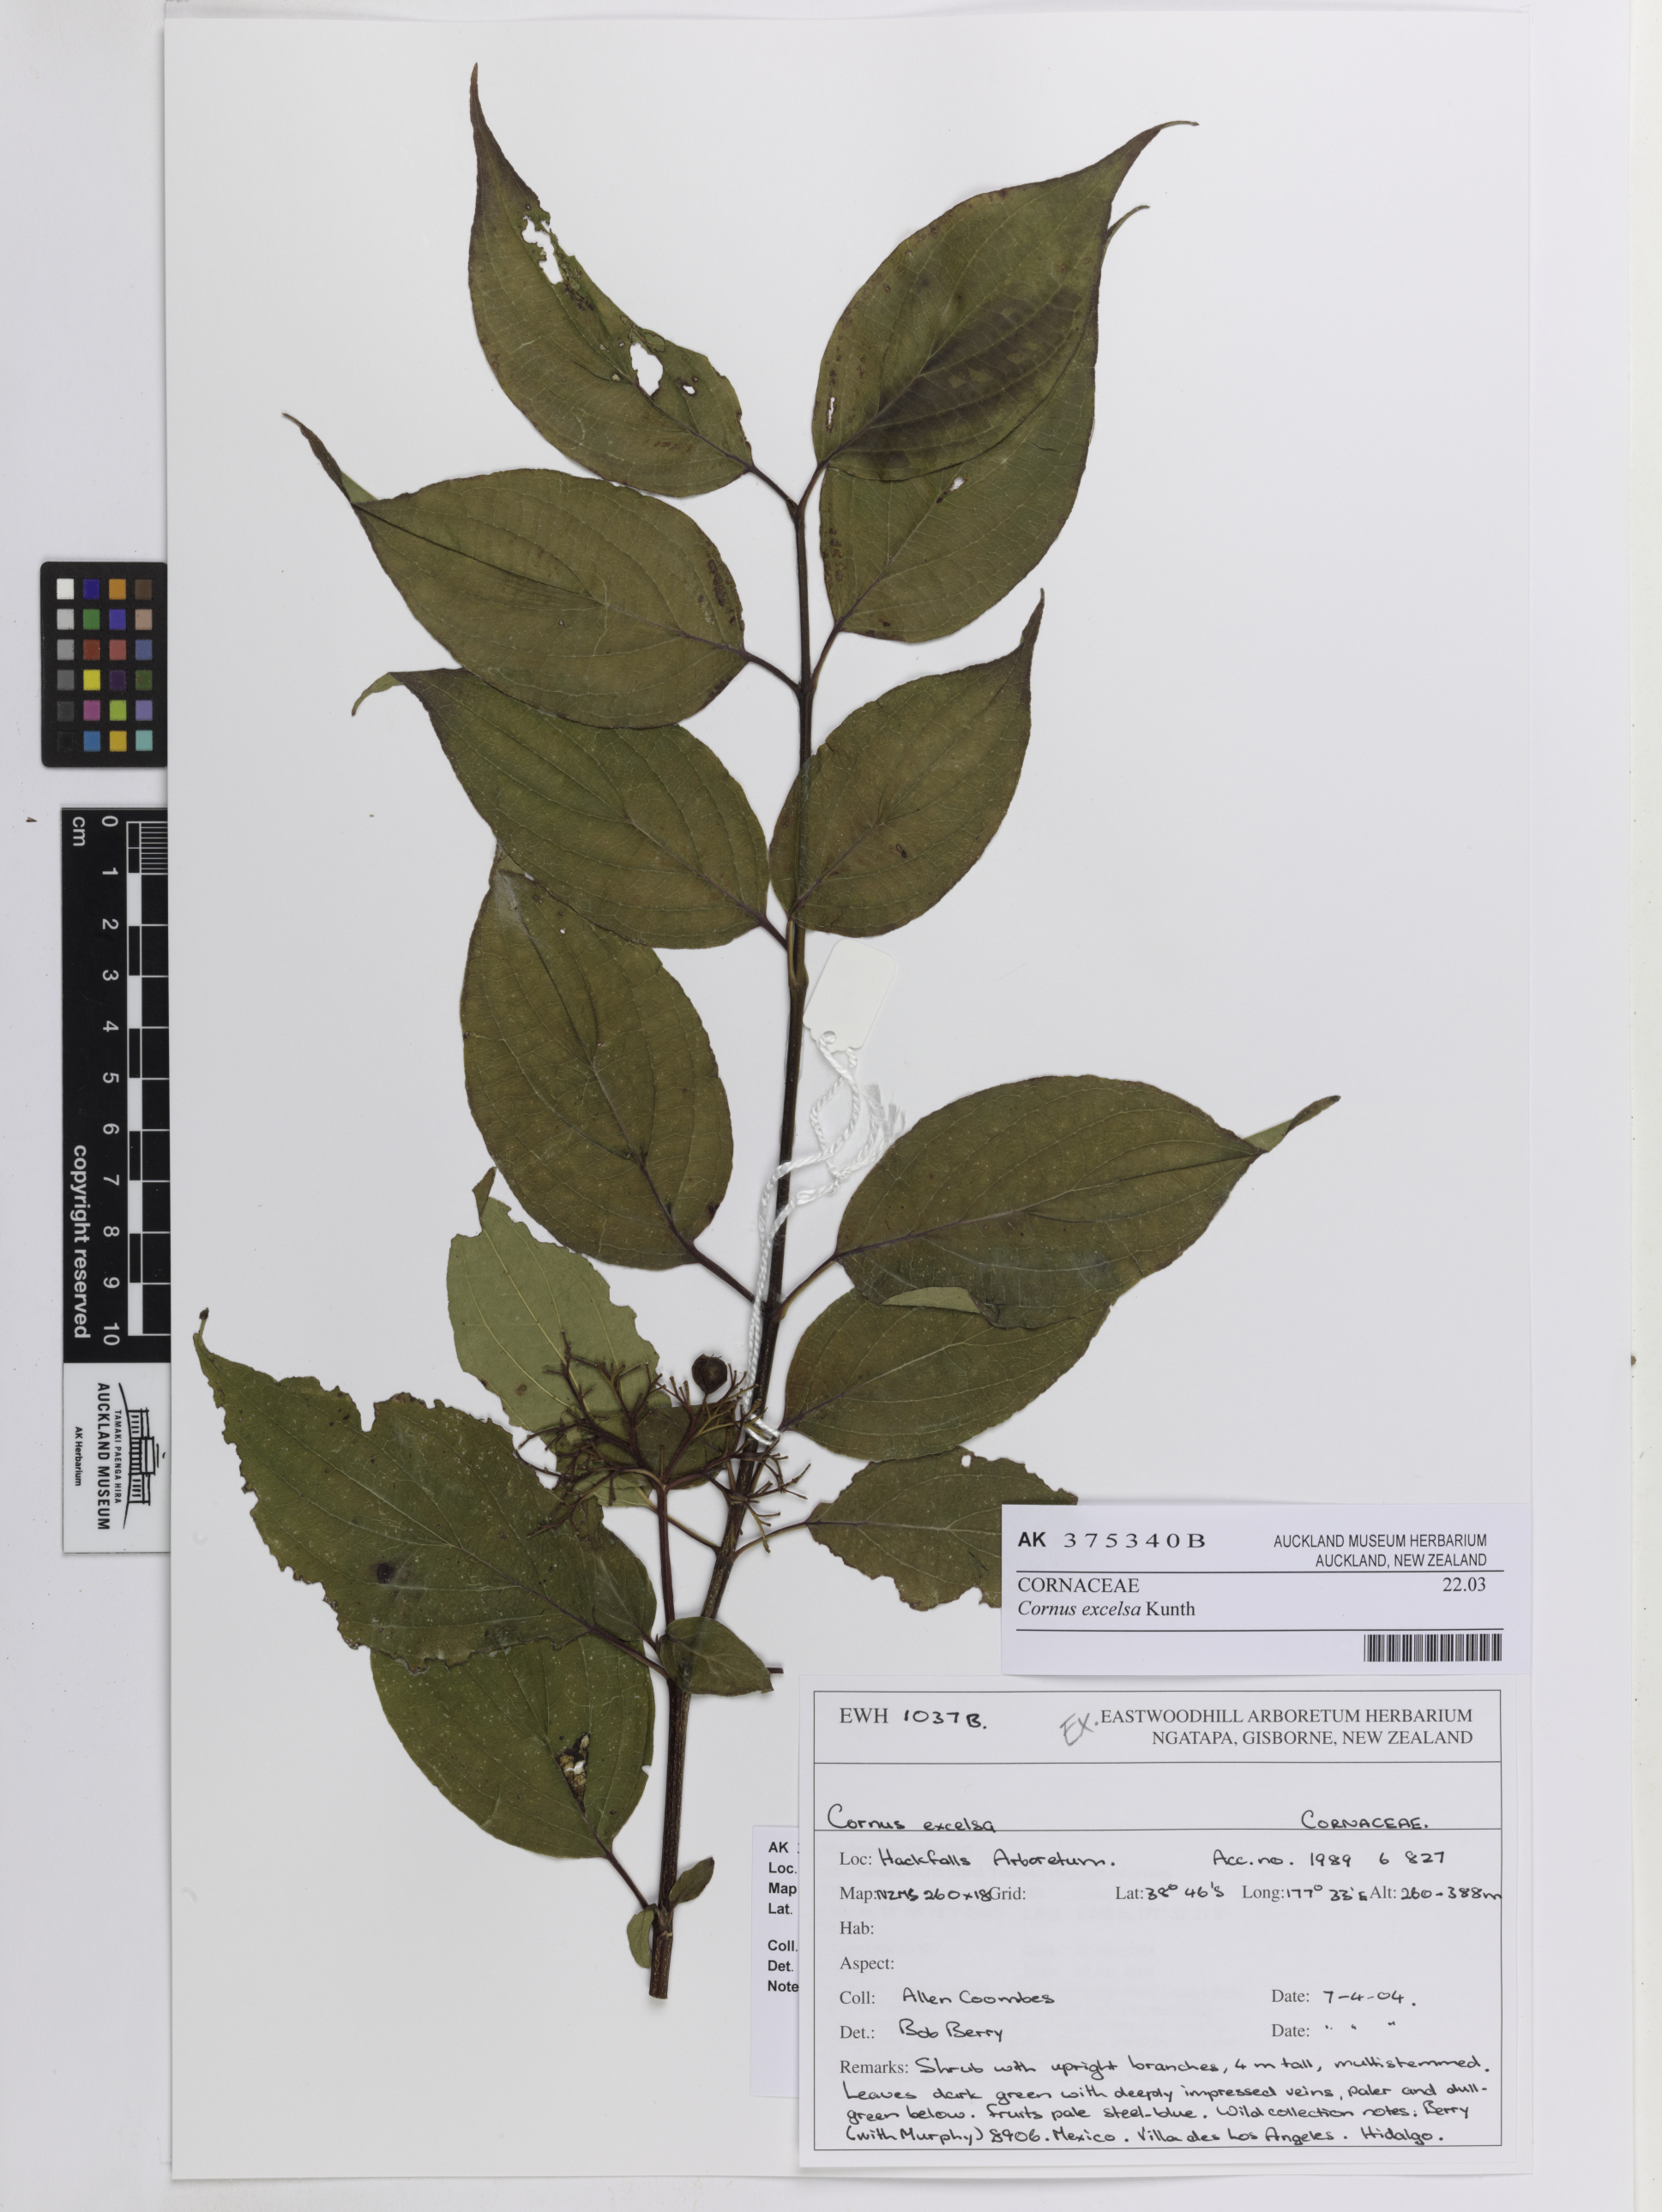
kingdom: Plantae
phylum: Tracheophyta
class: Magnoliopsida
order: Cornales
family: Cornaceae
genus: Cornus
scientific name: Cornus excelsa
